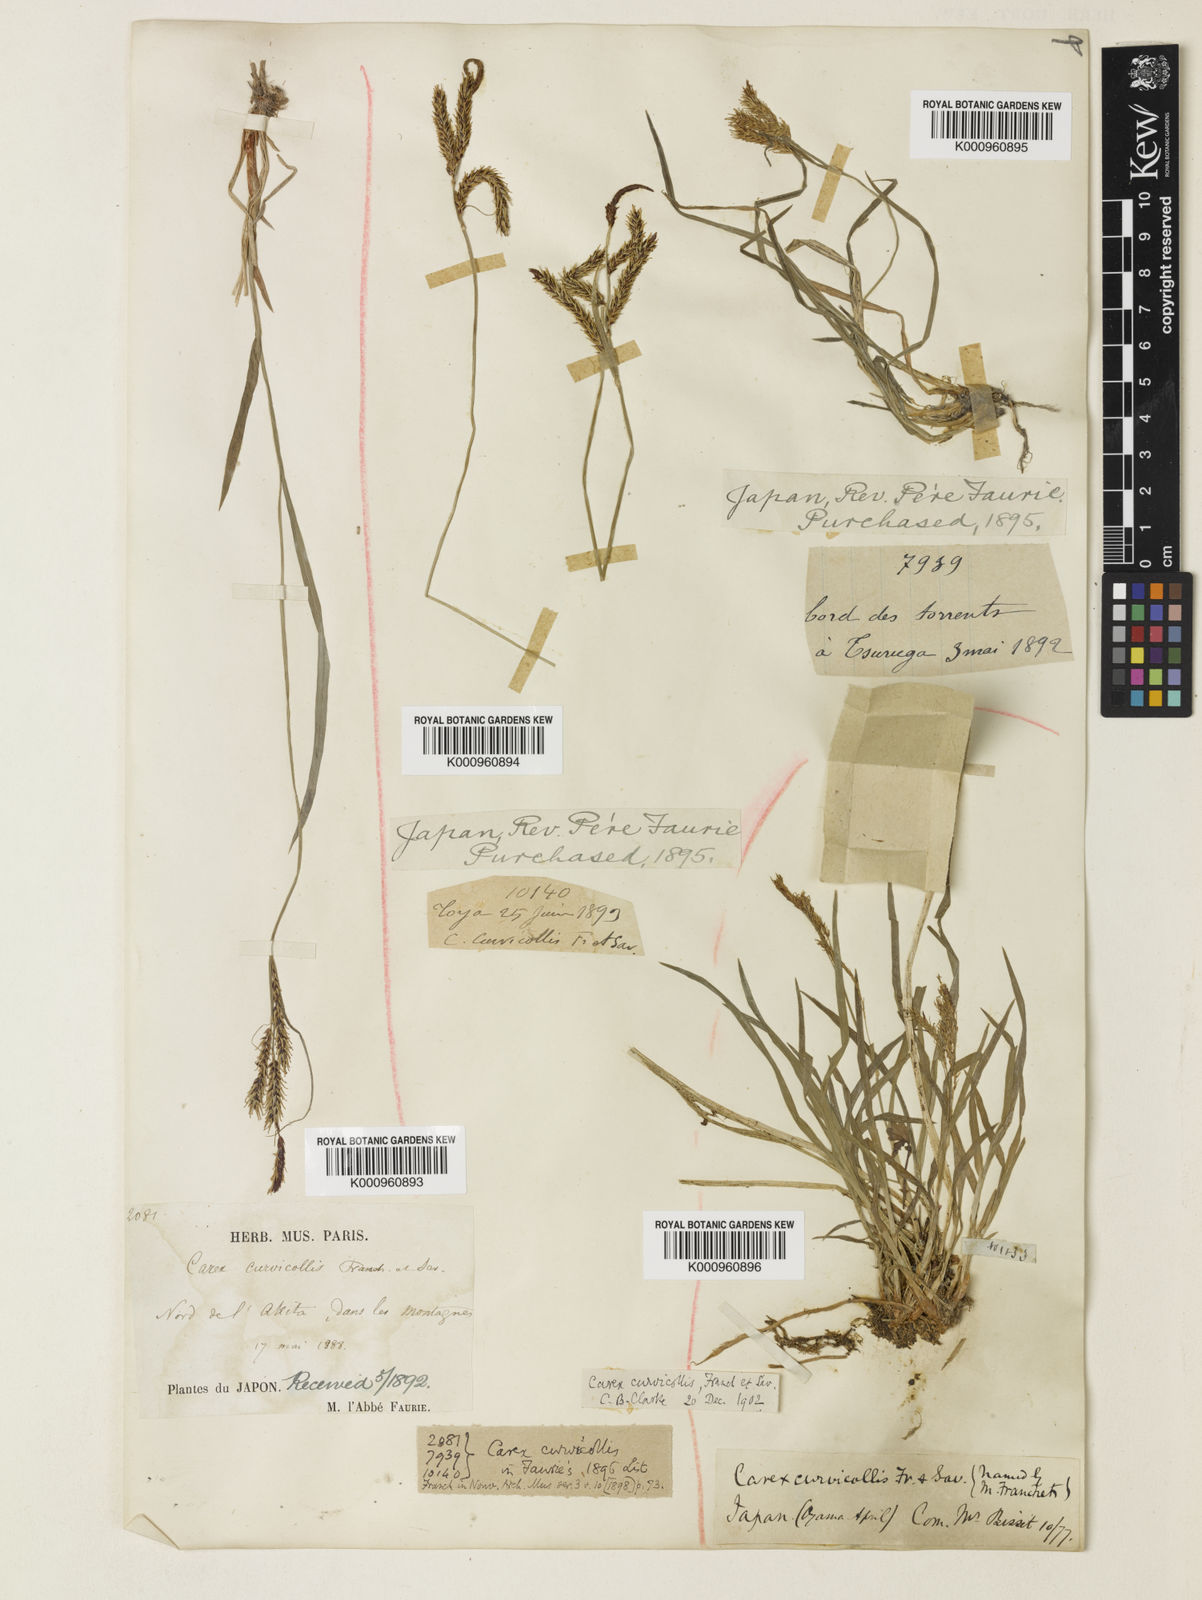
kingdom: Plantae
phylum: Tracheophyta
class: Liliopsida
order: Poales
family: Cyperaceae
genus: Carex
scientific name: Carex curvicollis
